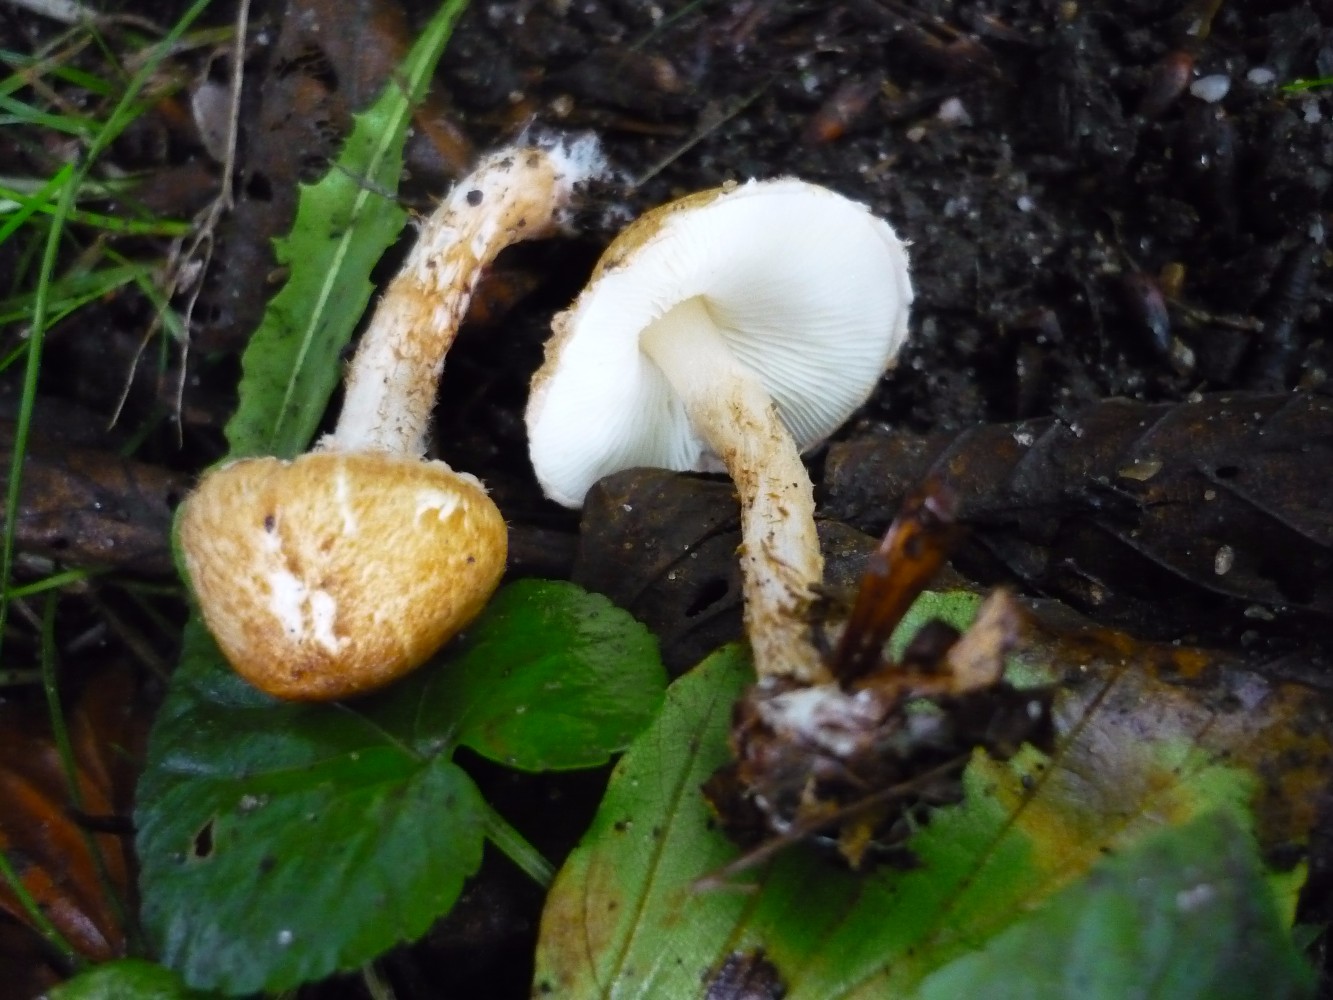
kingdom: Fungi
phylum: Basidiomycota
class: Agaricomycetes
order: Agaricales
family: Agaricaceae
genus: Leucocoprinus
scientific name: Leucocoprinus straminellus
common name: rustbrun parasolhat
